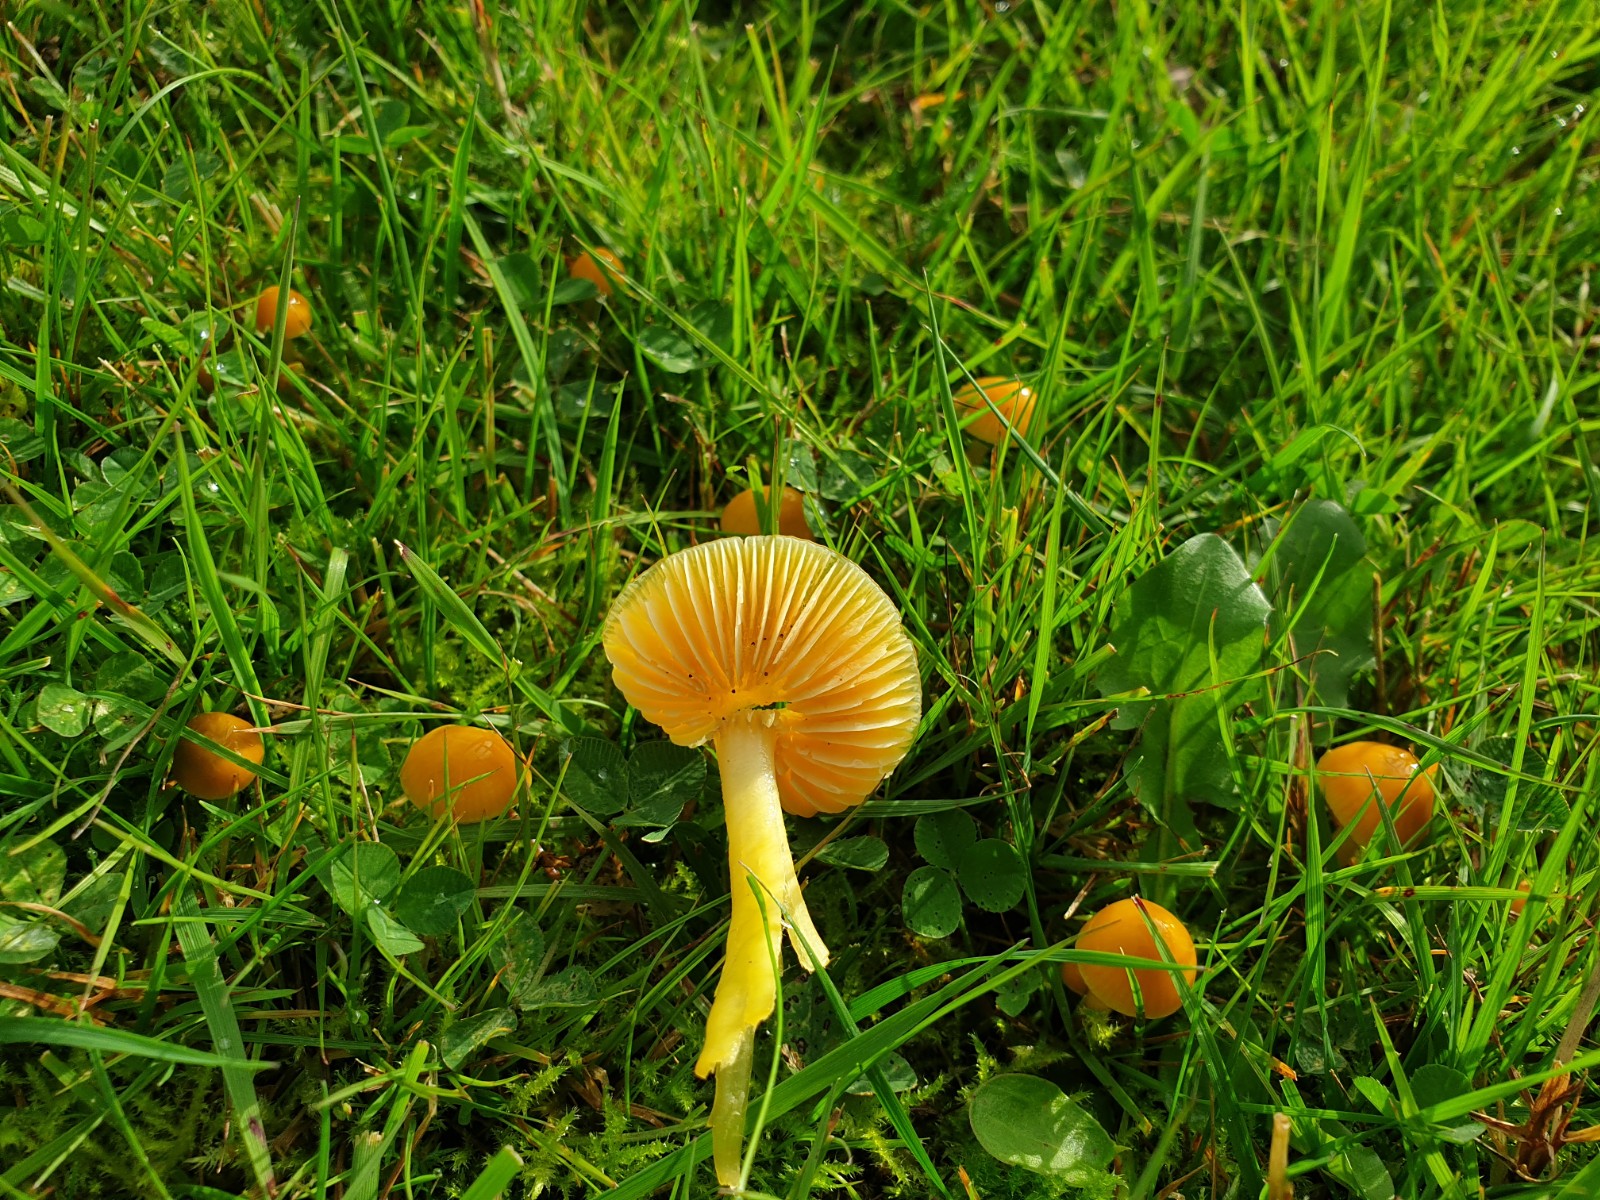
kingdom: Fungi
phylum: Basidiomycota
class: Agaricomycetes
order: Agaricales
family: Hygrophoraceae
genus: Hygrocybe
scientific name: Hygrocybe ceracea
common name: voksgul vokshat
